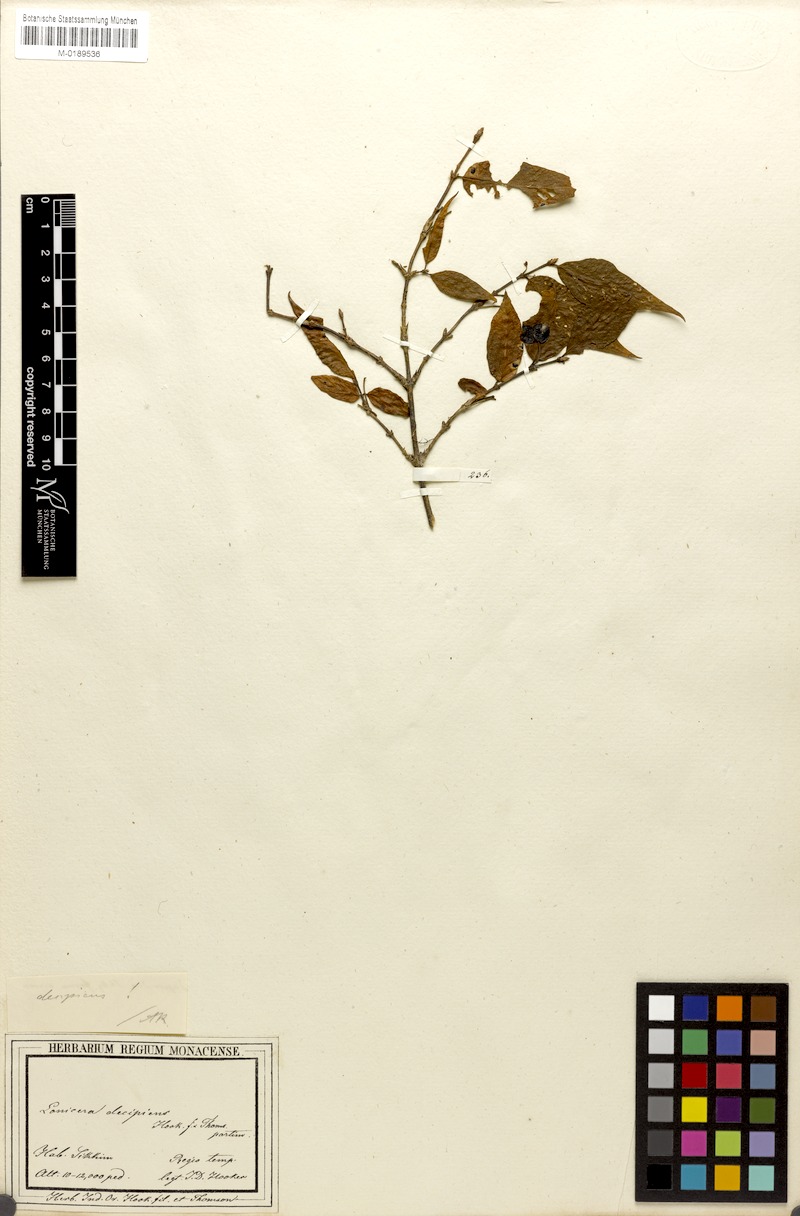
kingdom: Plantae
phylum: Tracheophyta
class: Magnoliopsida
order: Dipsacales
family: Caprifoliaceae
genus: Lonicera
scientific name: Lonicera ligustrina
